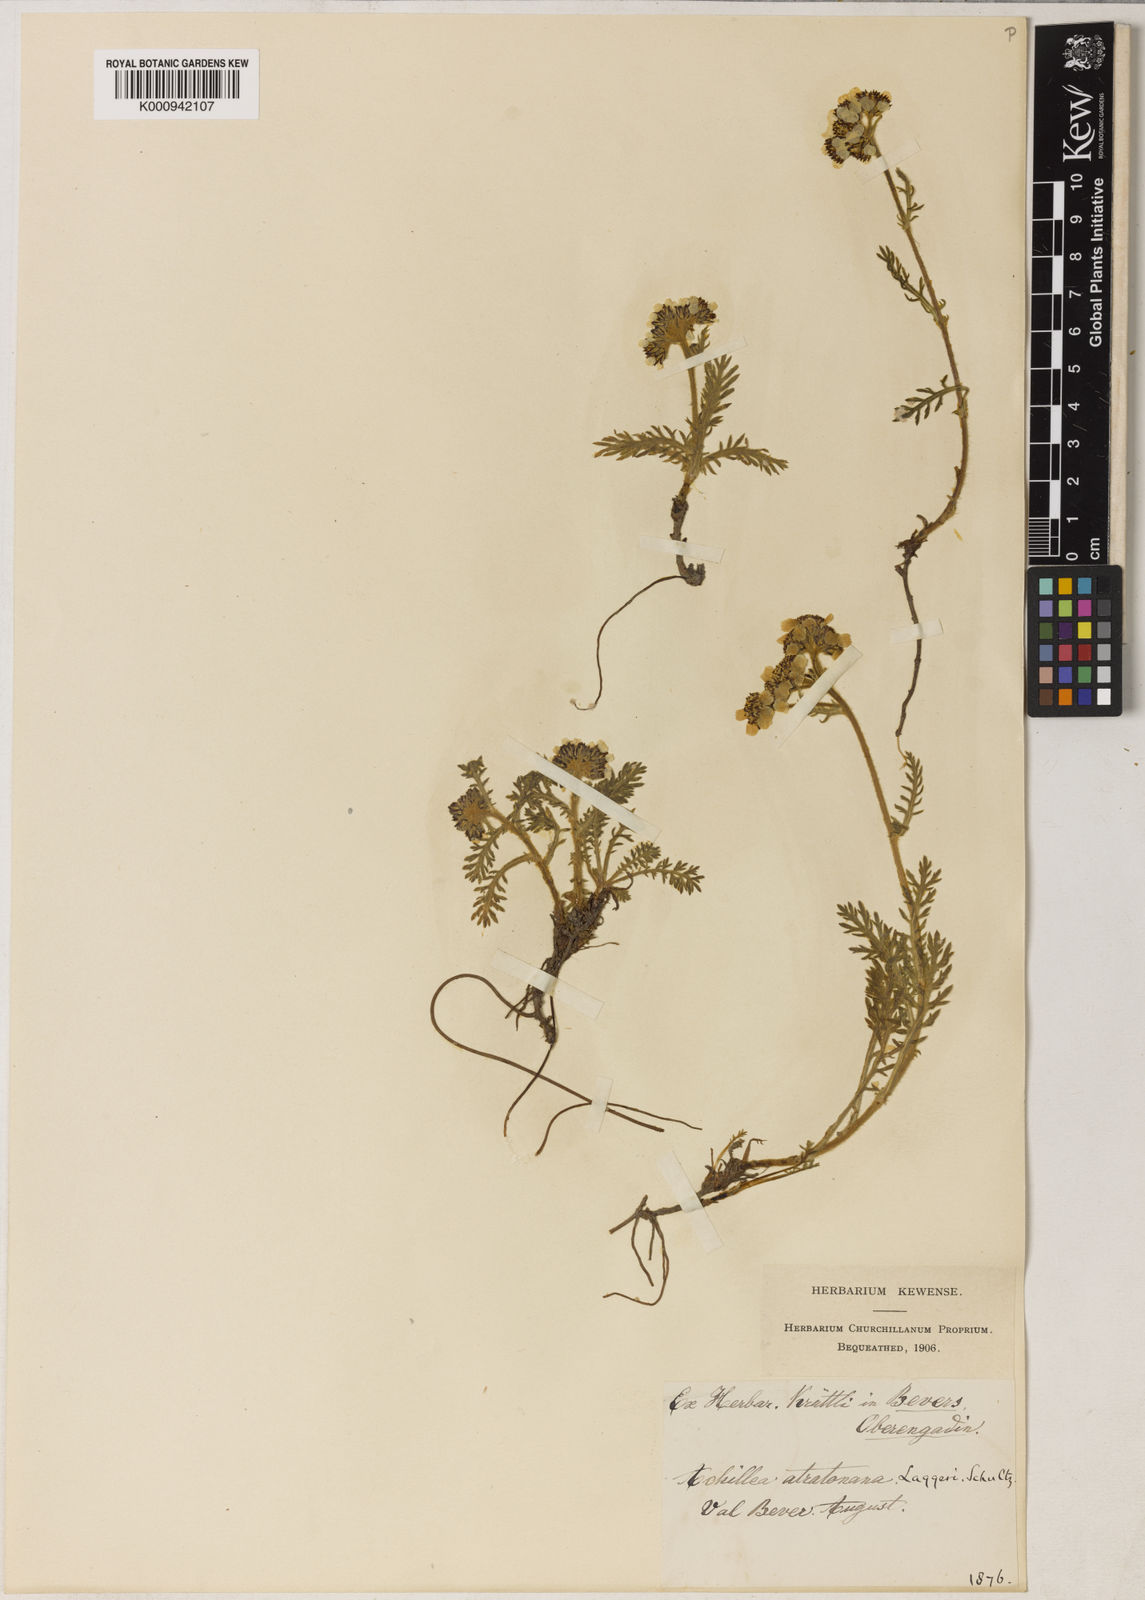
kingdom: Plantae
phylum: Tracheophyta
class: Magnoliopsida
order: Asterales
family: Asteraceae
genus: Achillea
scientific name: Achillea atrata
